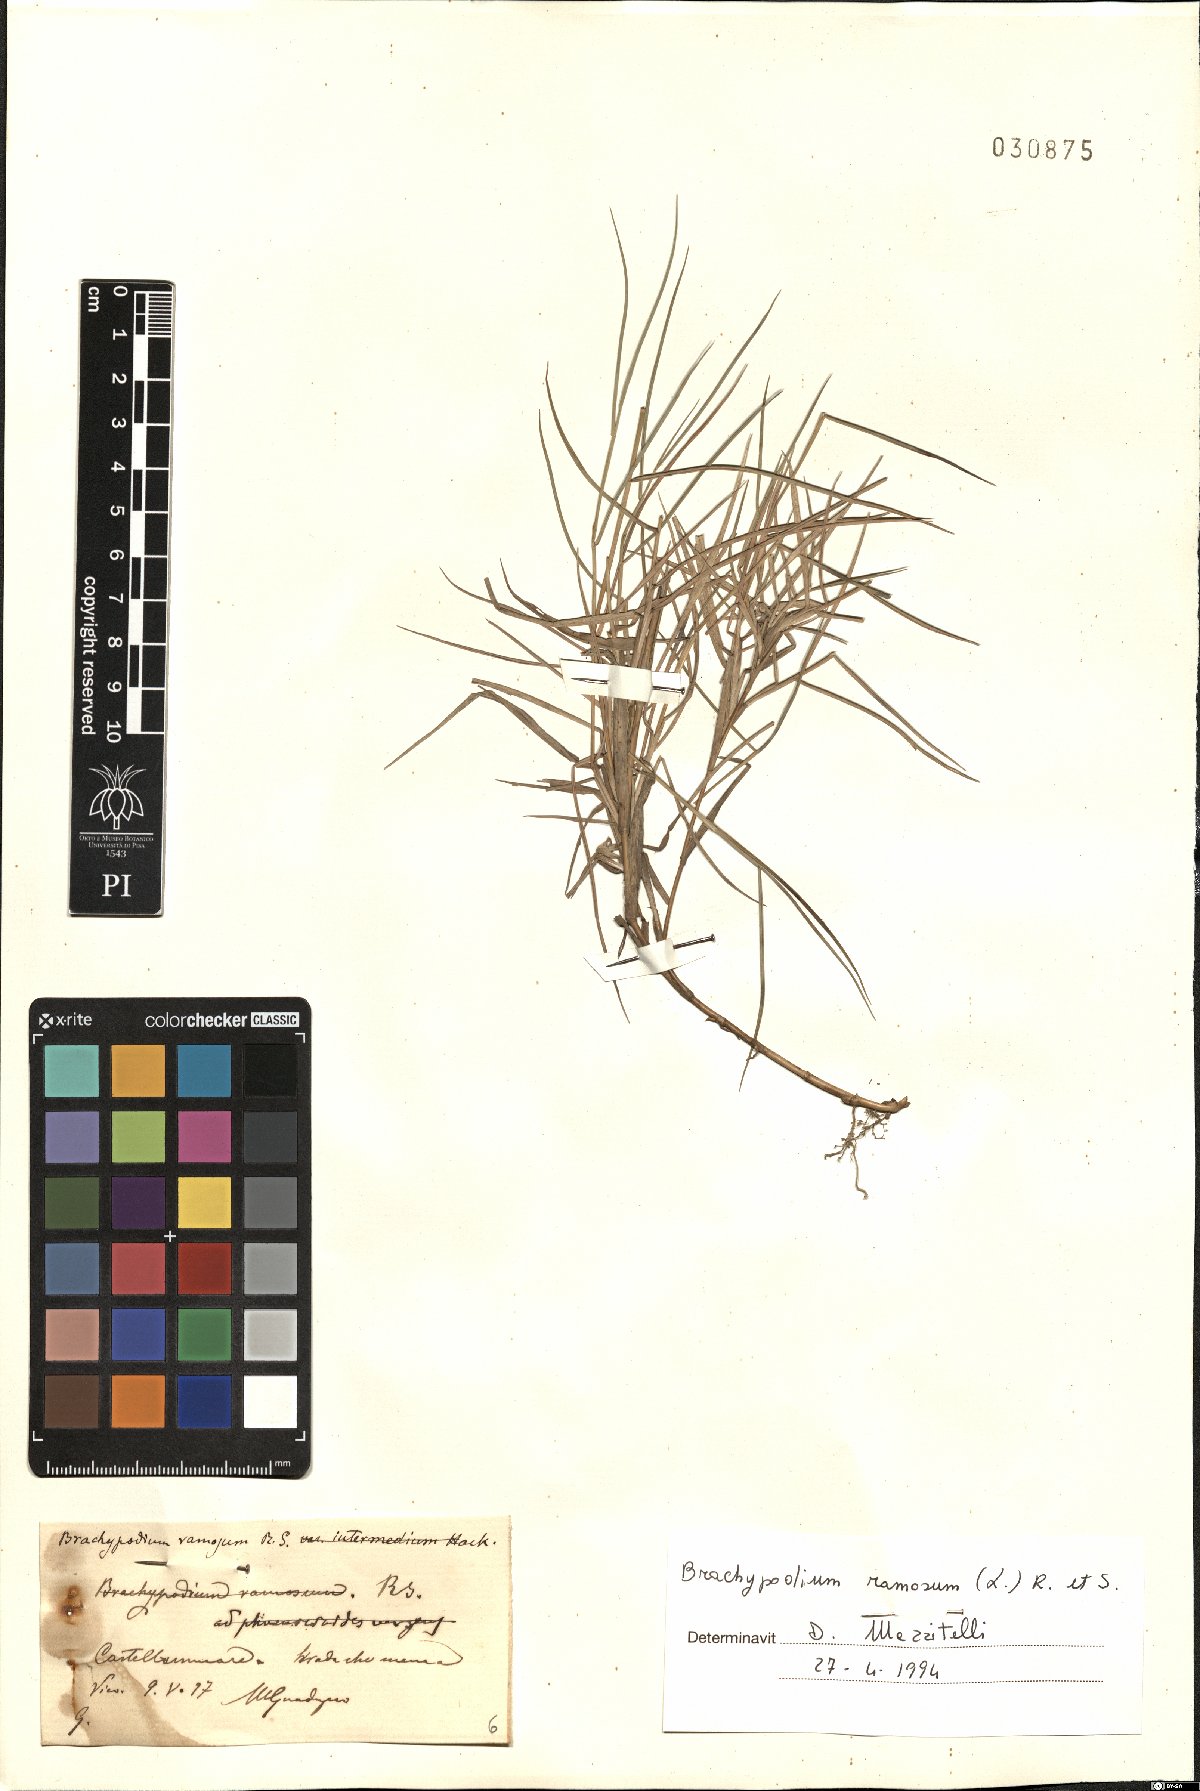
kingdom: Plantae
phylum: Tracheophyta
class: Liliopsida
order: Poales
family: Poaceae
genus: Brachypodium
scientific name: Brachypodium retusum
